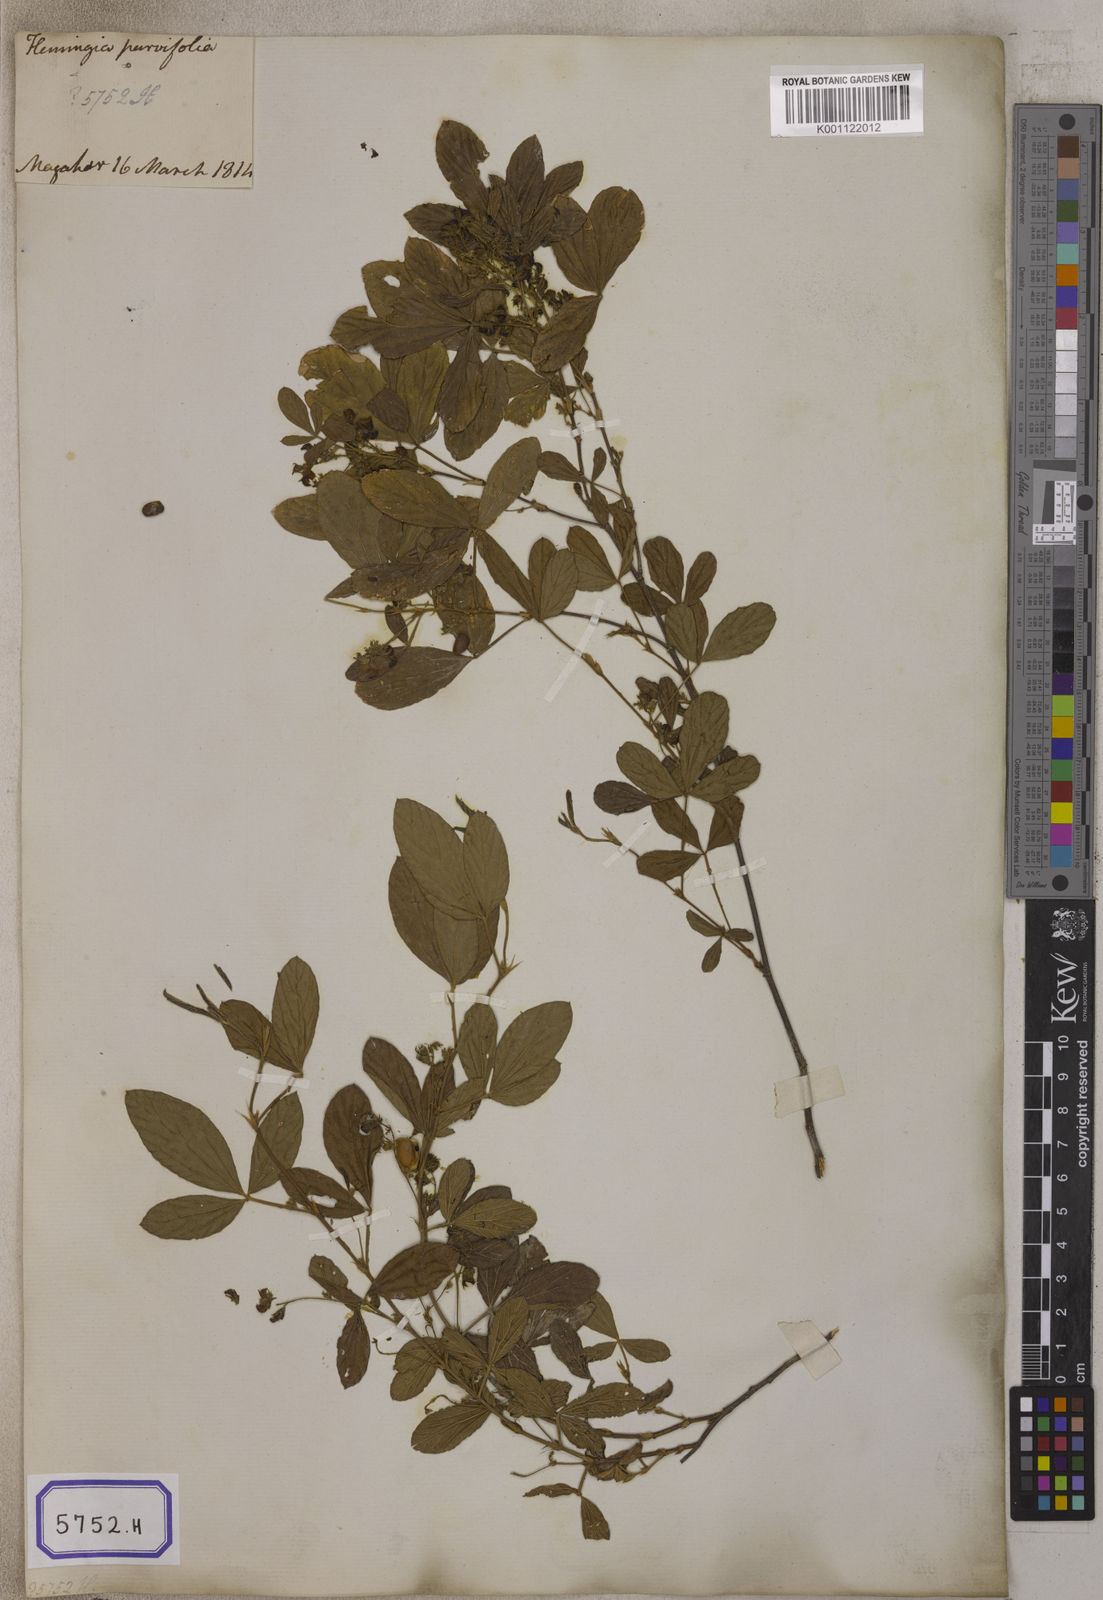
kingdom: Plantae
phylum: Tracheophyta
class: Magnoliopsida
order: Fabales
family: Fabaceae
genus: Flemingia
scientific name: Flemingia lineata
